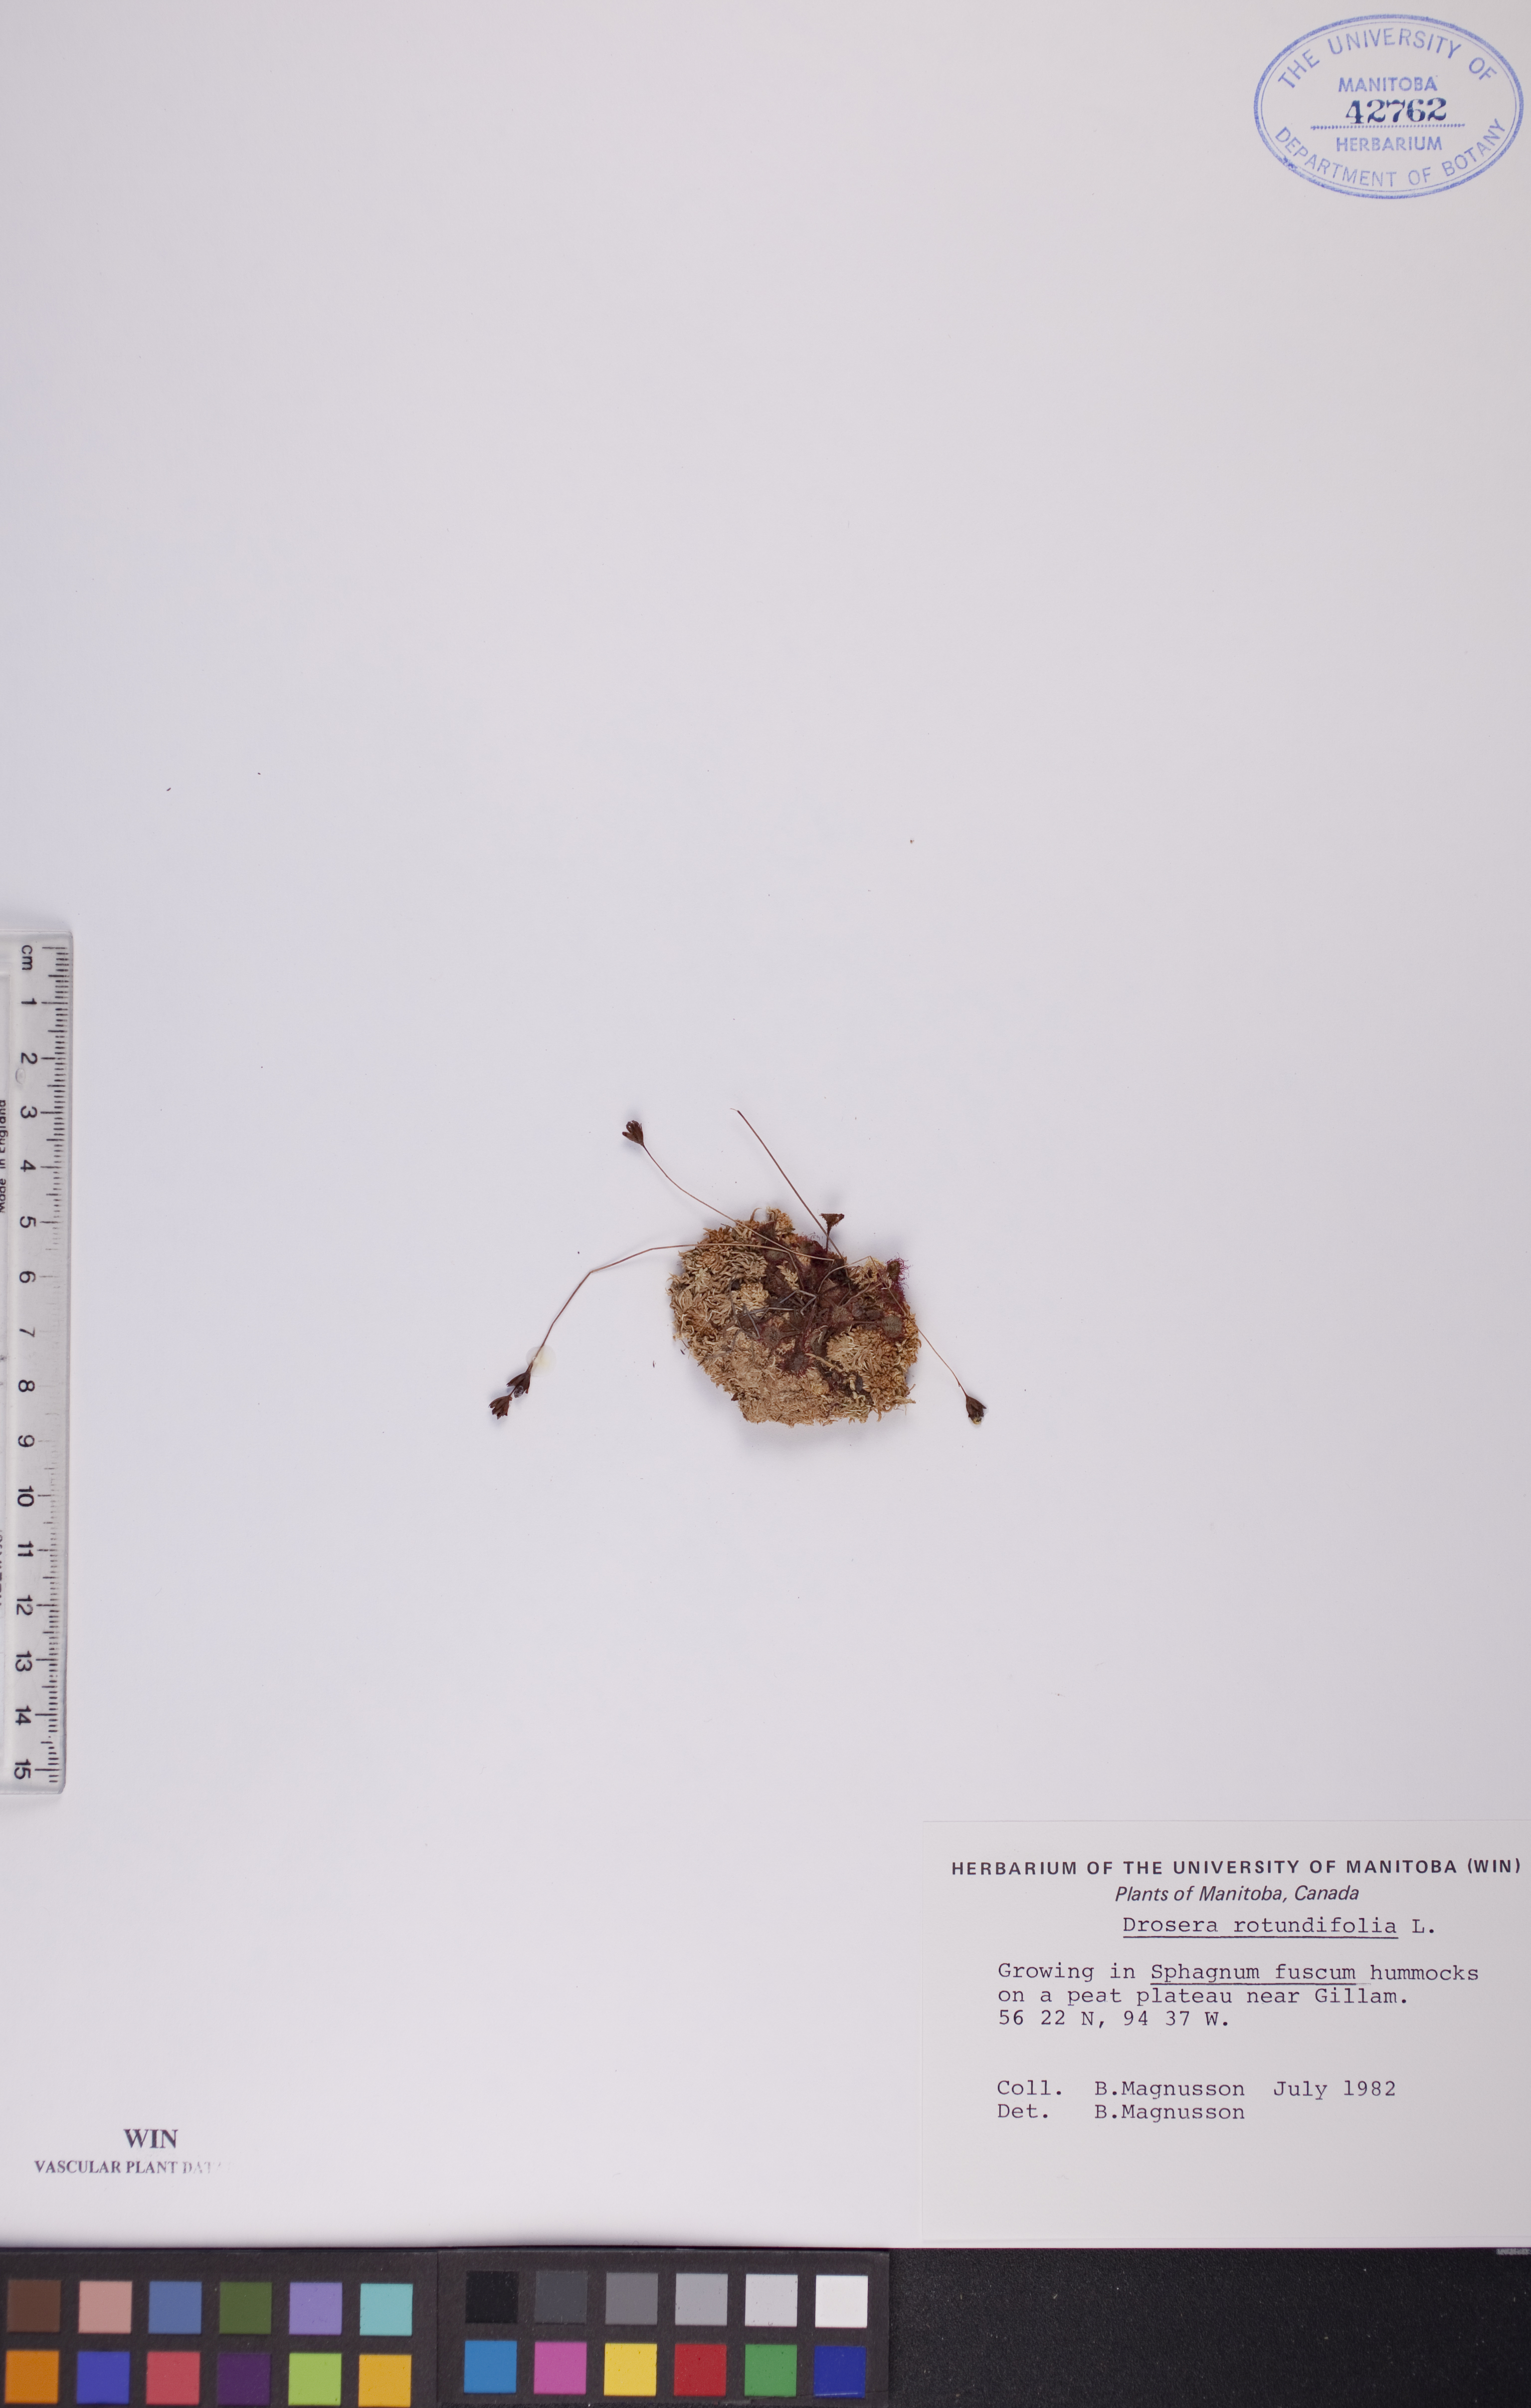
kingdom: Plantae
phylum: Tracheophyta
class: Magnoliopsida
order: Caryophyllales
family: Droseraceae
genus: Drosera
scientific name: Drosera rotundifolia
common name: Round-leaved sundew
